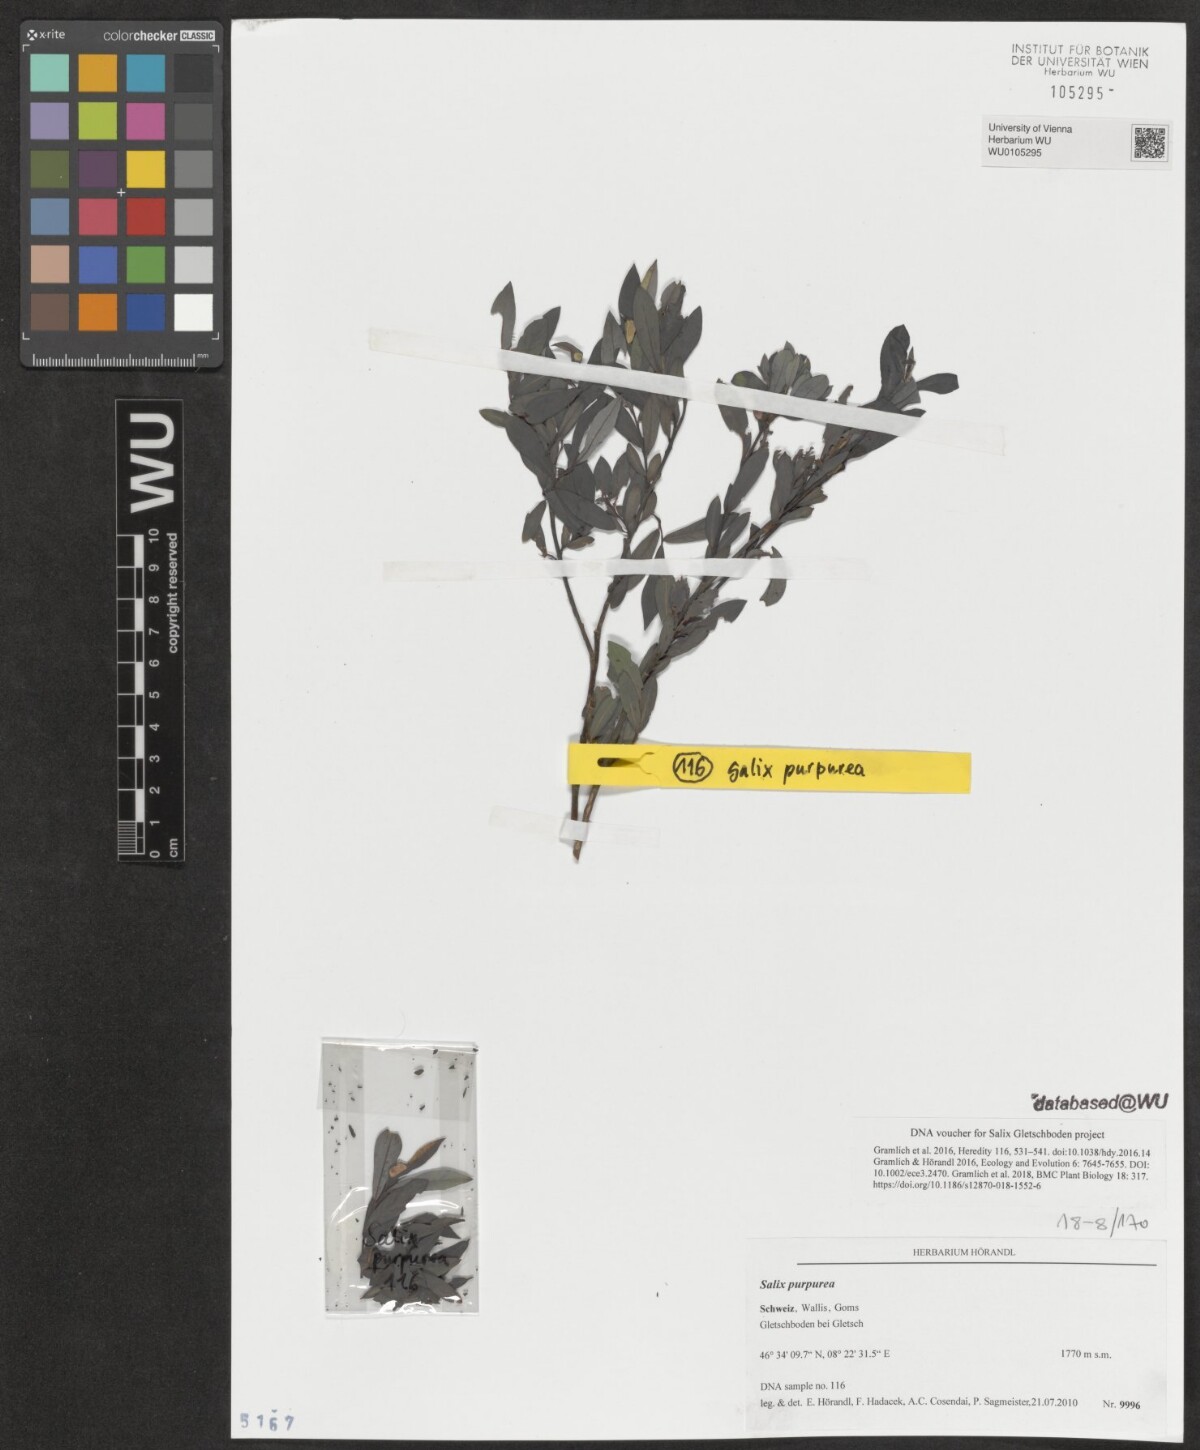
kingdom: Plantae
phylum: Tracheophyta
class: Magnoliopsida
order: Malpighiales
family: Salicaceae
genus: Salix
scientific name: Salix purpurea
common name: Purple willow
